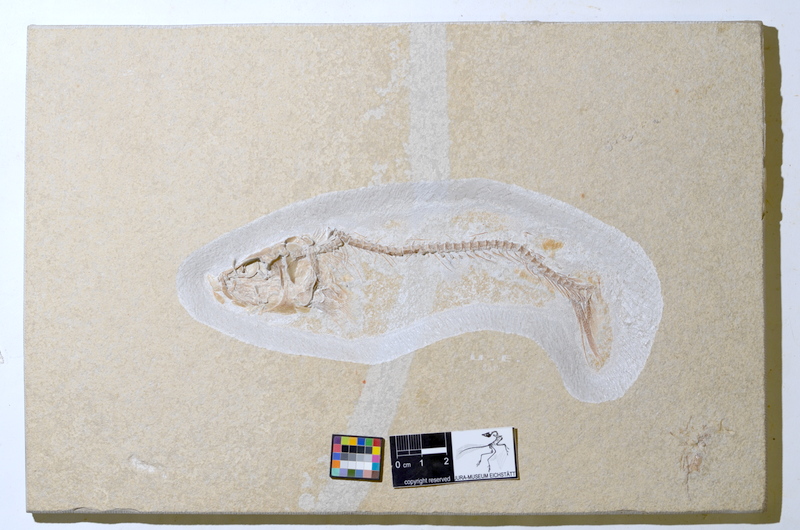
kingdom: Animalia
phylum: Chordata
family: Ascalaboidae
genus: Tharsis
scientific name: Tharsis elleri
